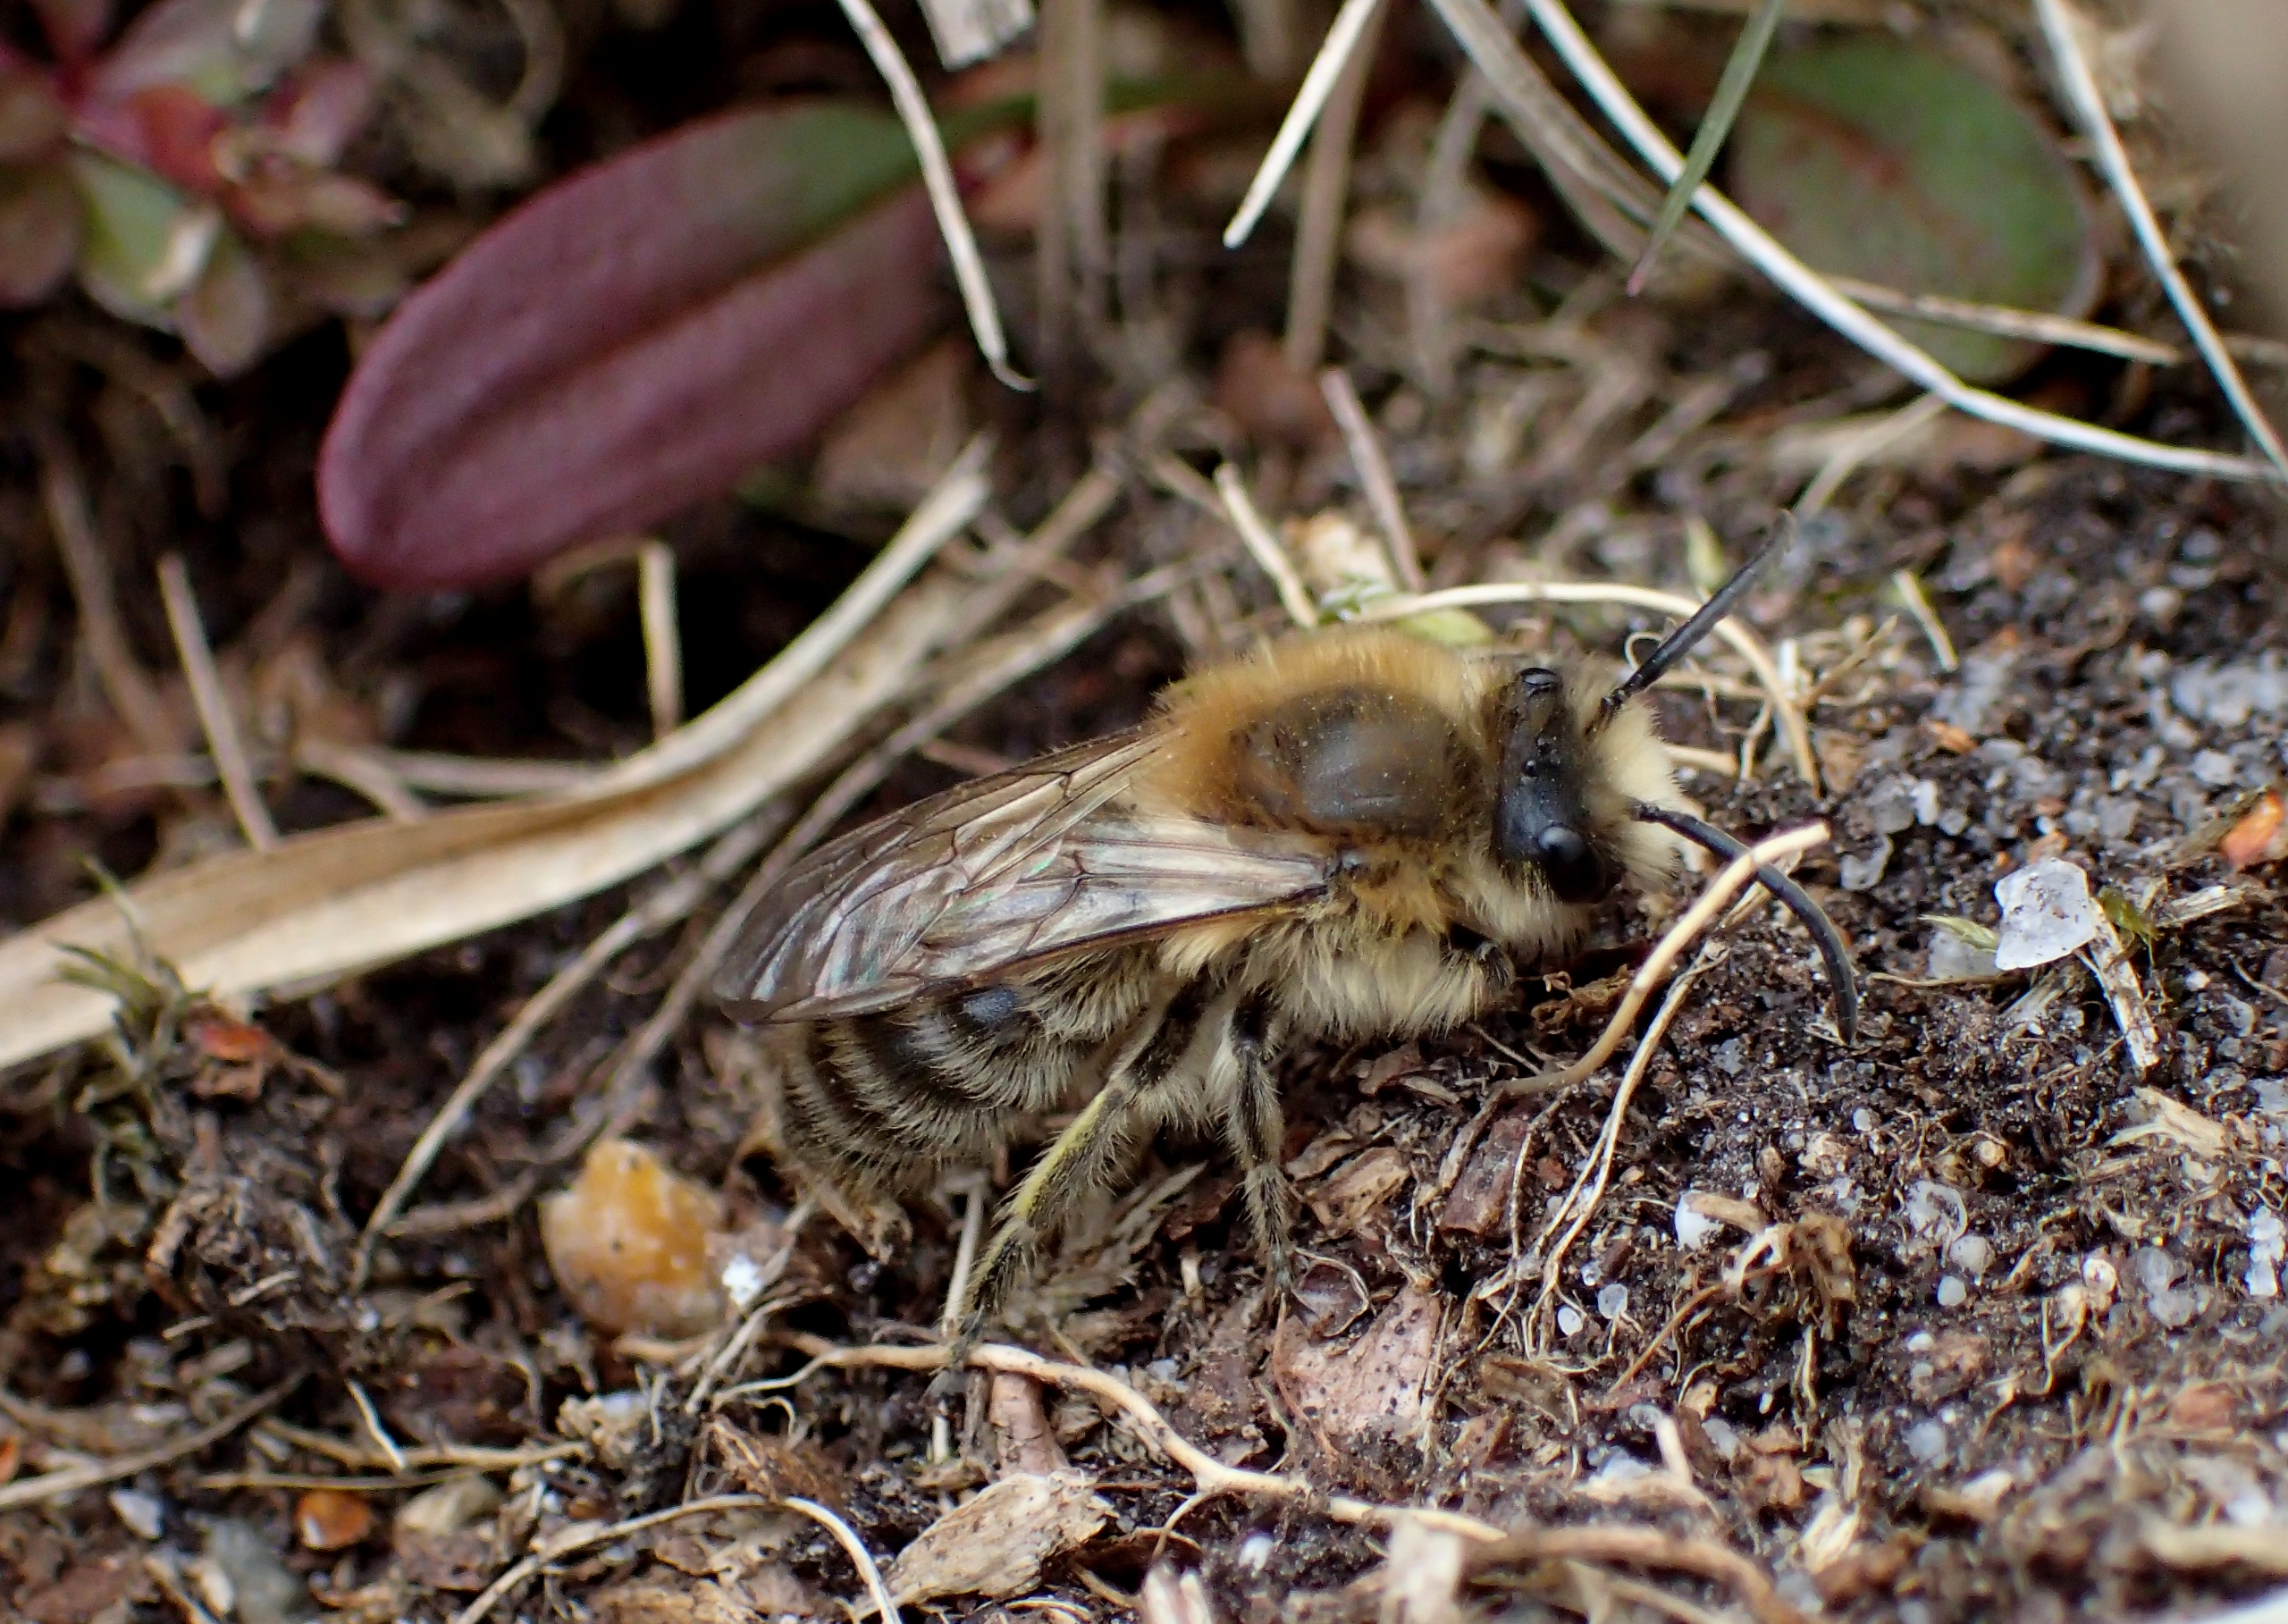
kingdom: Animalia
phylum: Arthropoda
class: Insecta
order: Hymenoptera
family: Colletidae
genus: Colletes
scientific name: Colletes cunicularius
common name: Vårsilkebi
